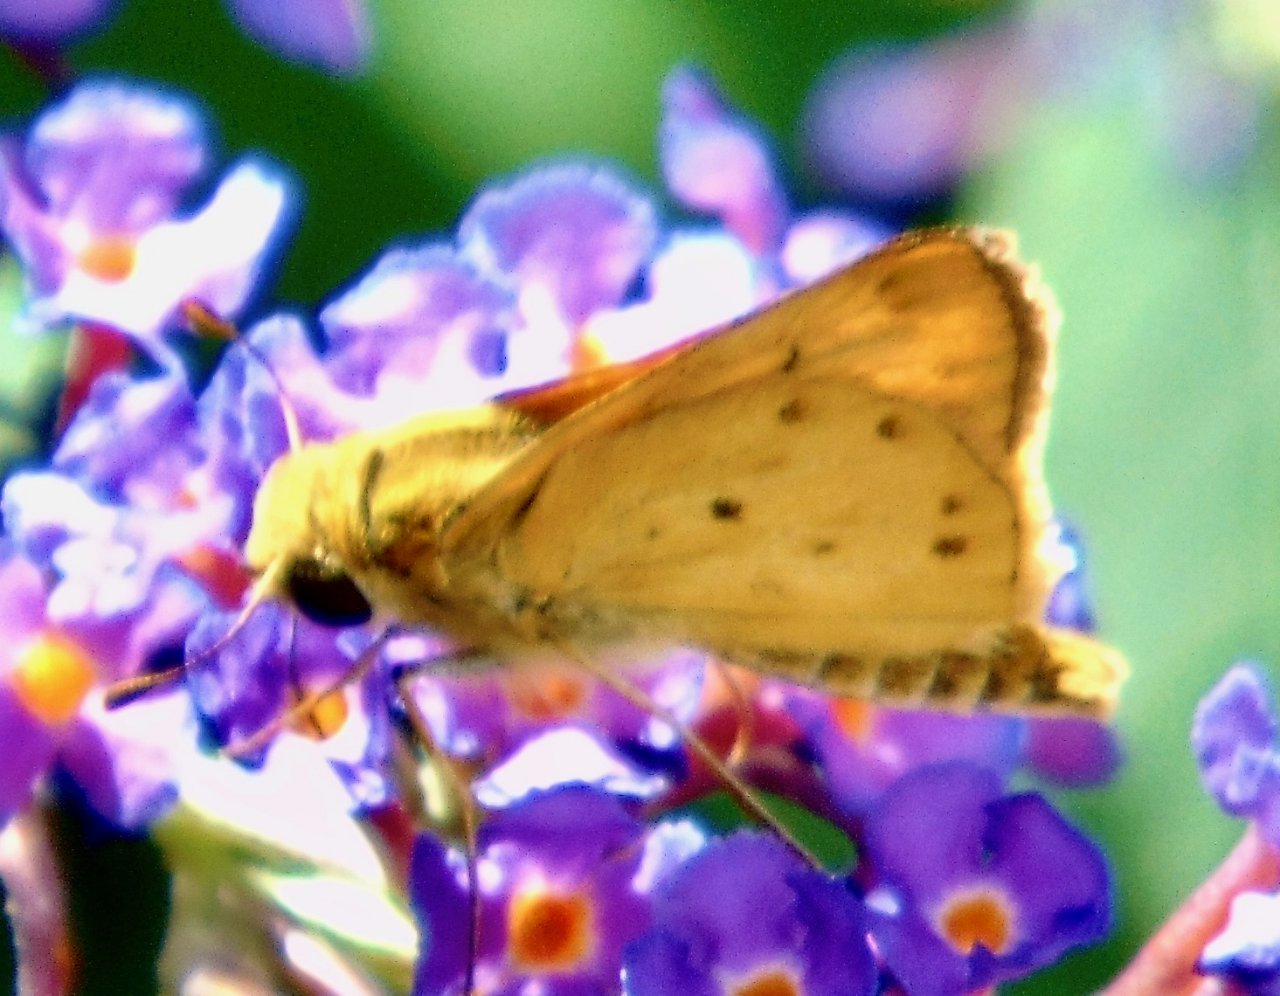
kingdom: Animalia
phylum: Arthropoda
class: Insecta
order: Lepidoptera
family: Hesperiidae
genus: Hylephila
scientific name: Hylephila phyleus
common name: Fiery Skipper
